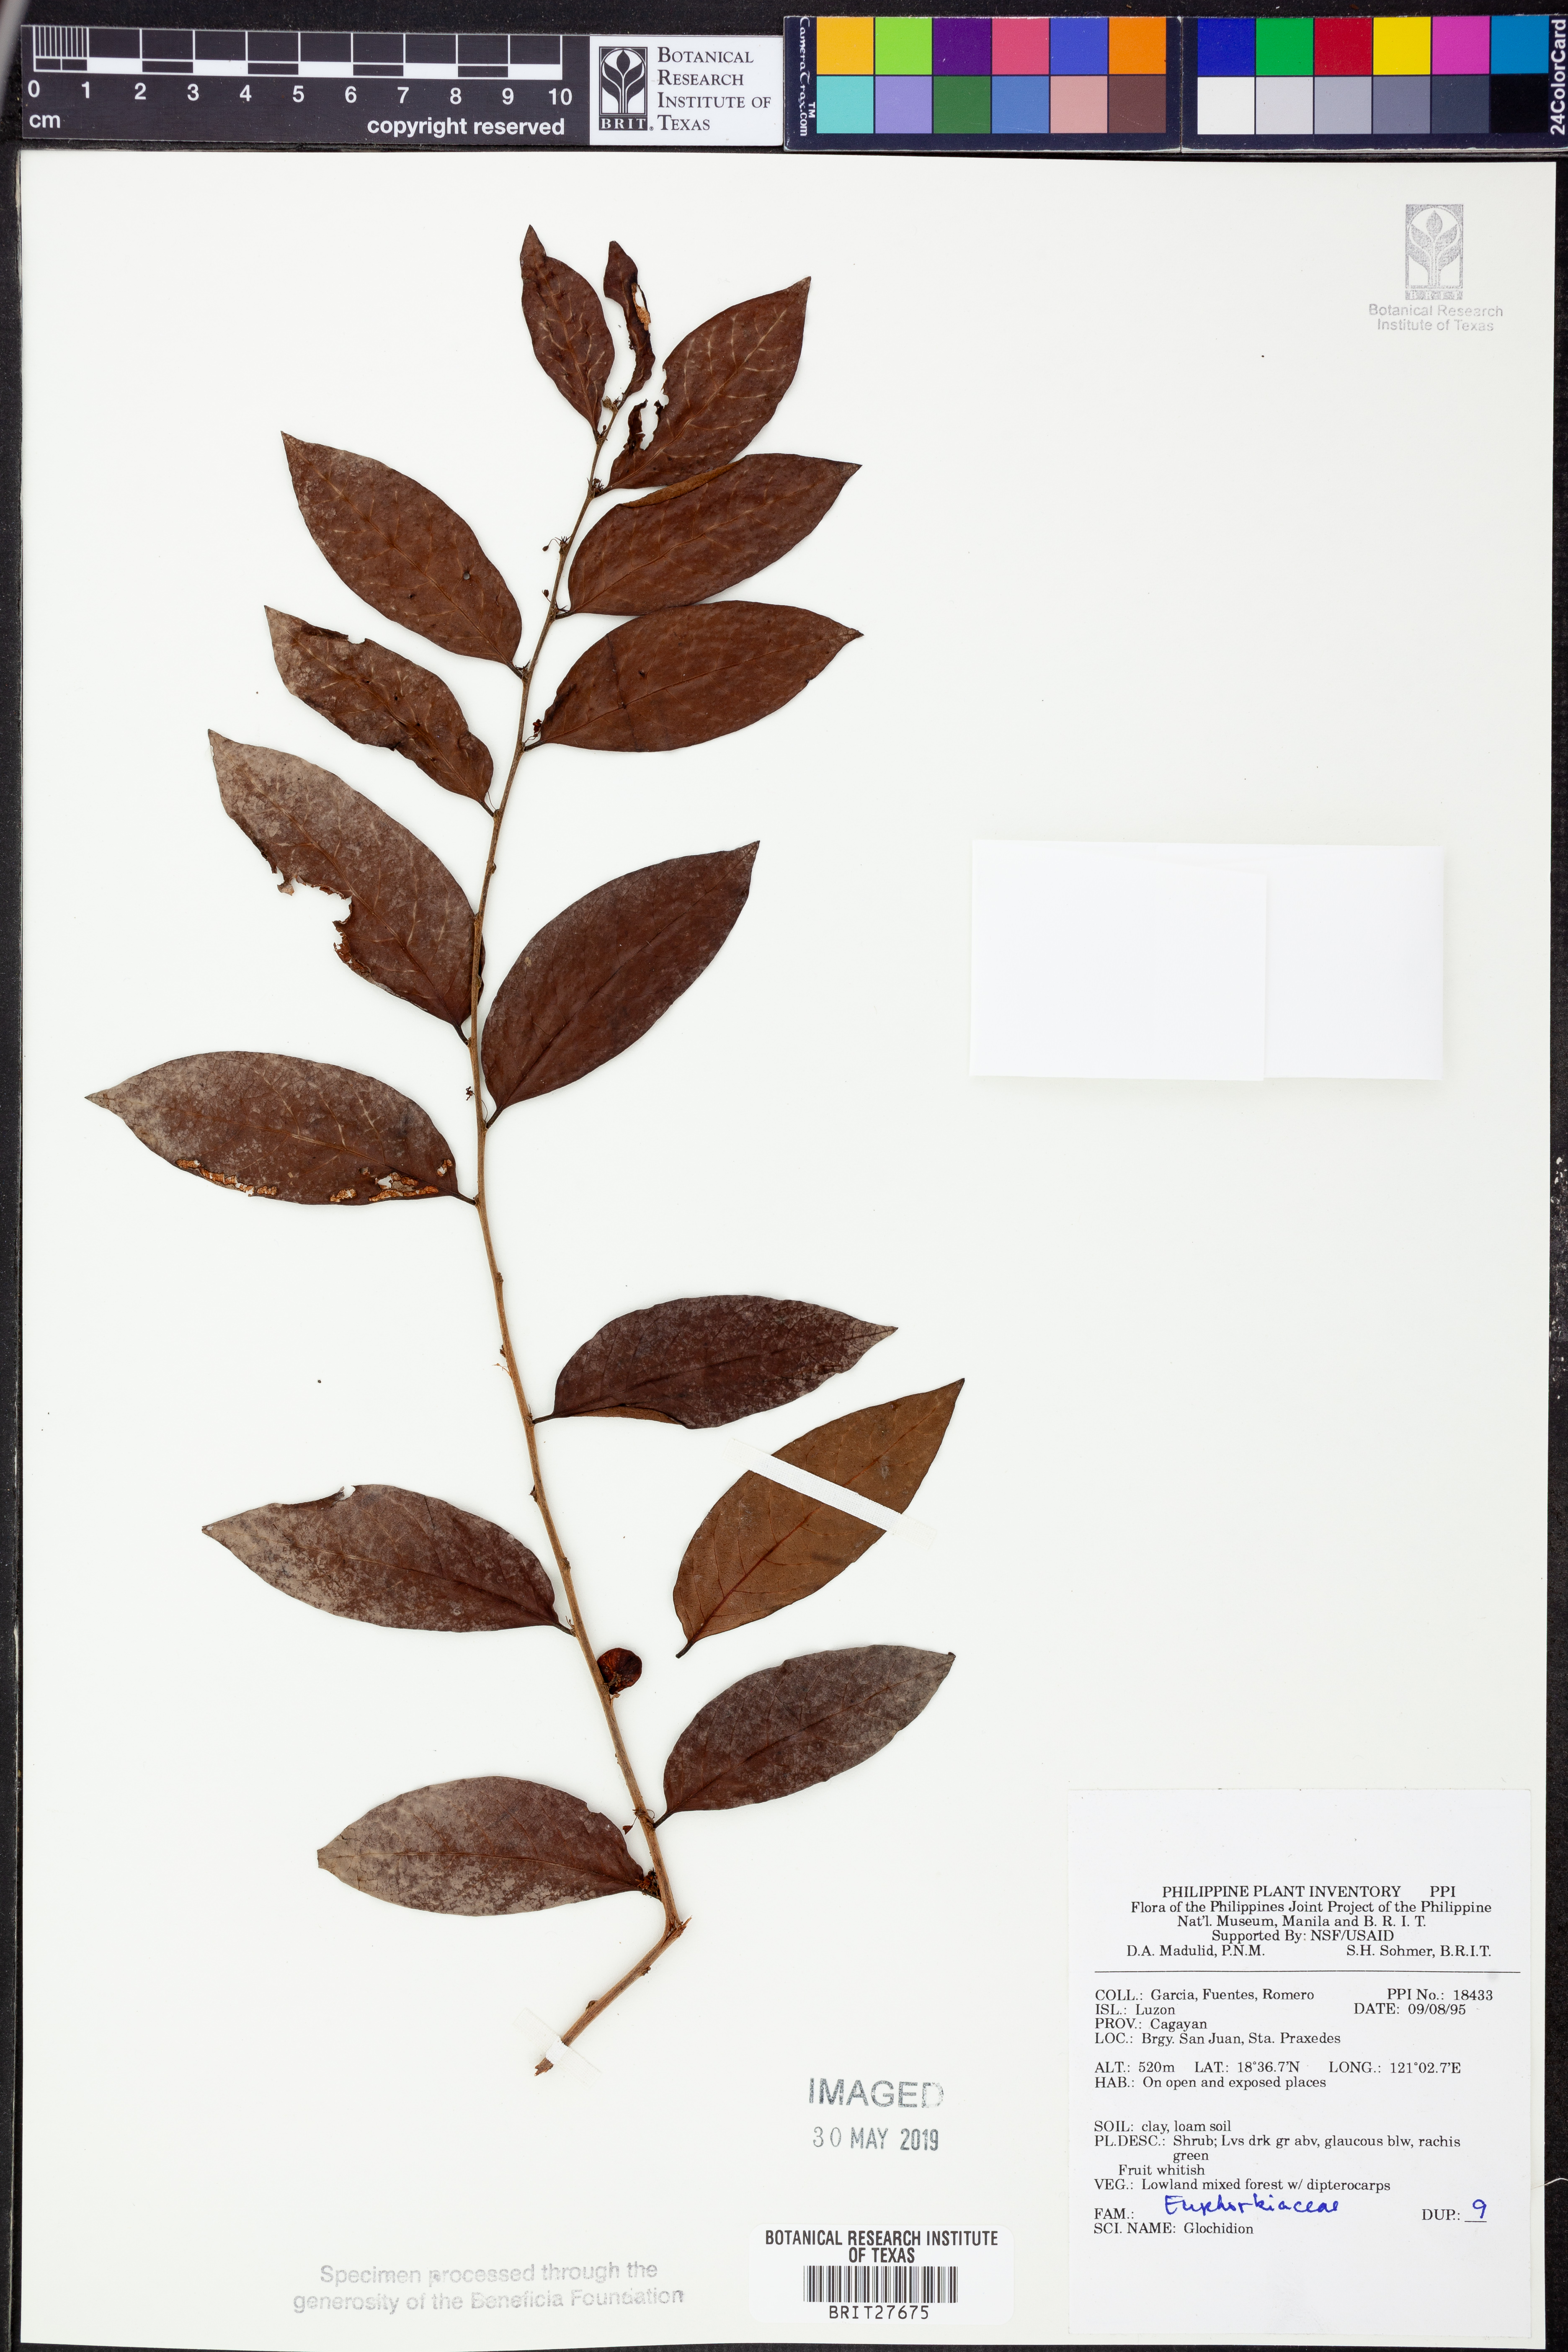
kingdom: Plantae
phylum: Tracheophyta
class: Magnoliopsida
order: Malpighiales
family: Phyllanthaceae
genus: Glochidion
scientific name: Glochidion
